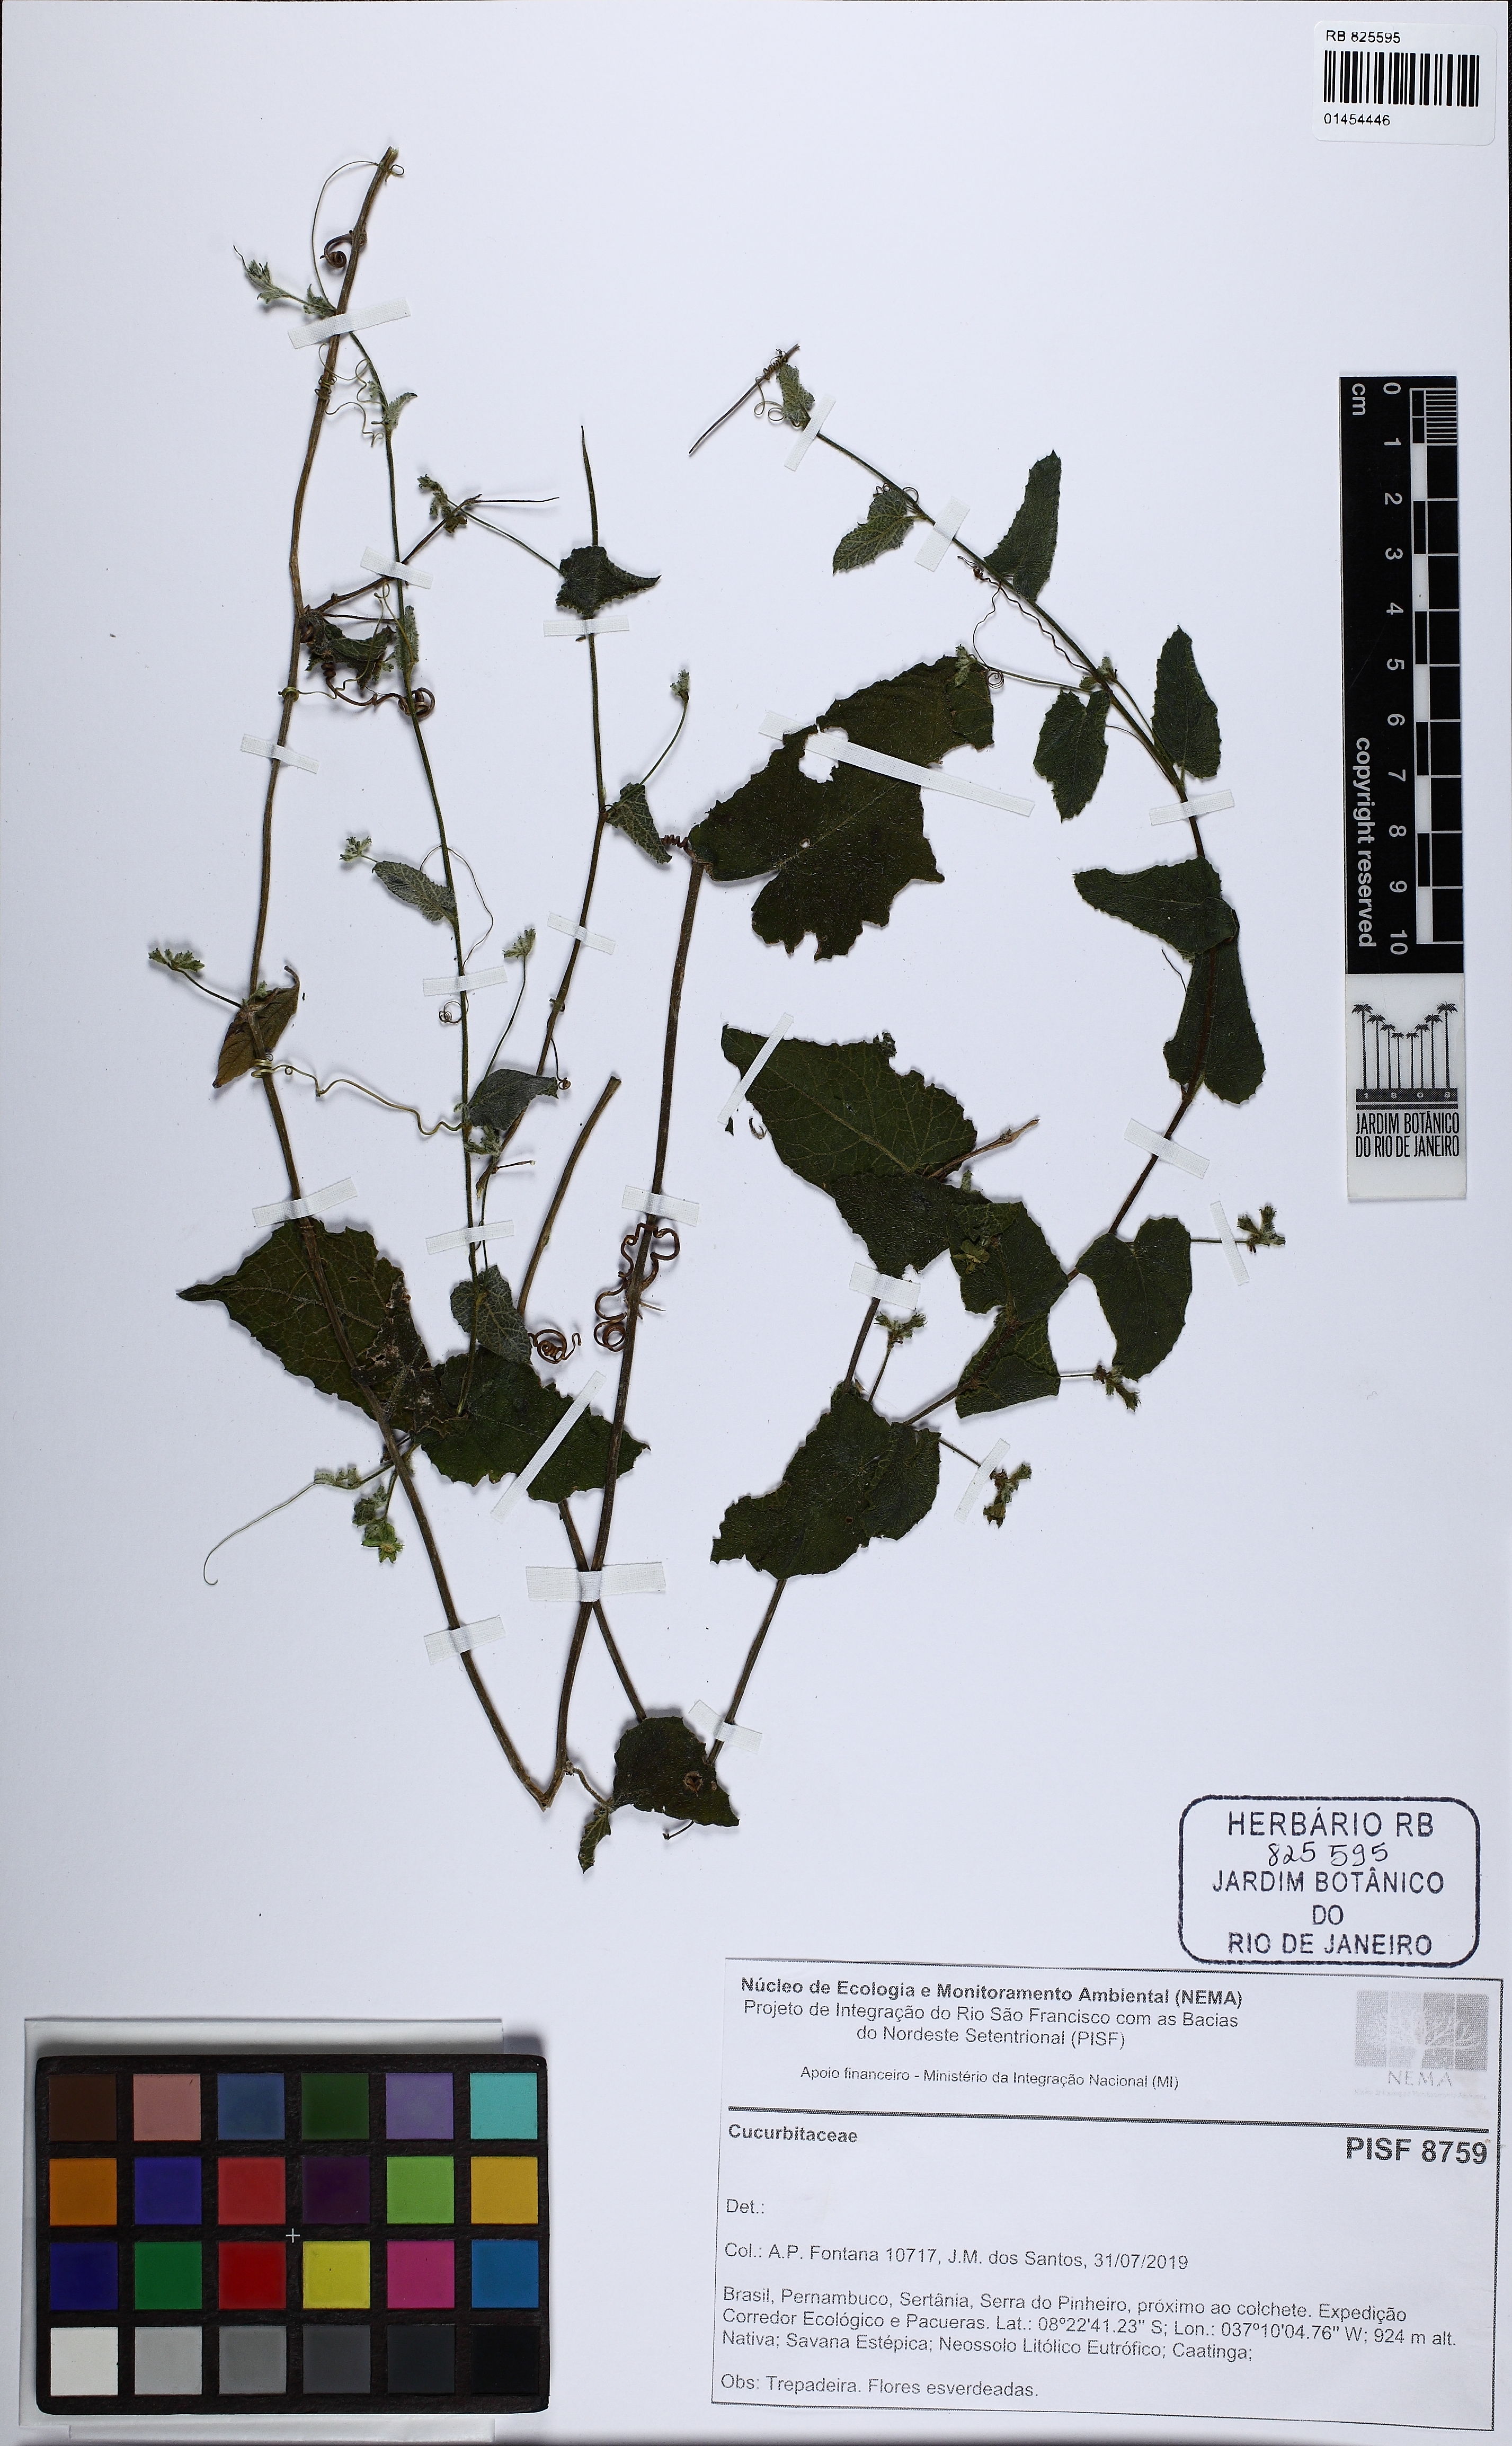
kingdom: Plantae
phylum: Tracheophyta
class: Magnoliopsida
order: Cucurbitales
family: Cucurbitaceae
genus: Apodanthera
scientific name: Apodanthera glaziovii
